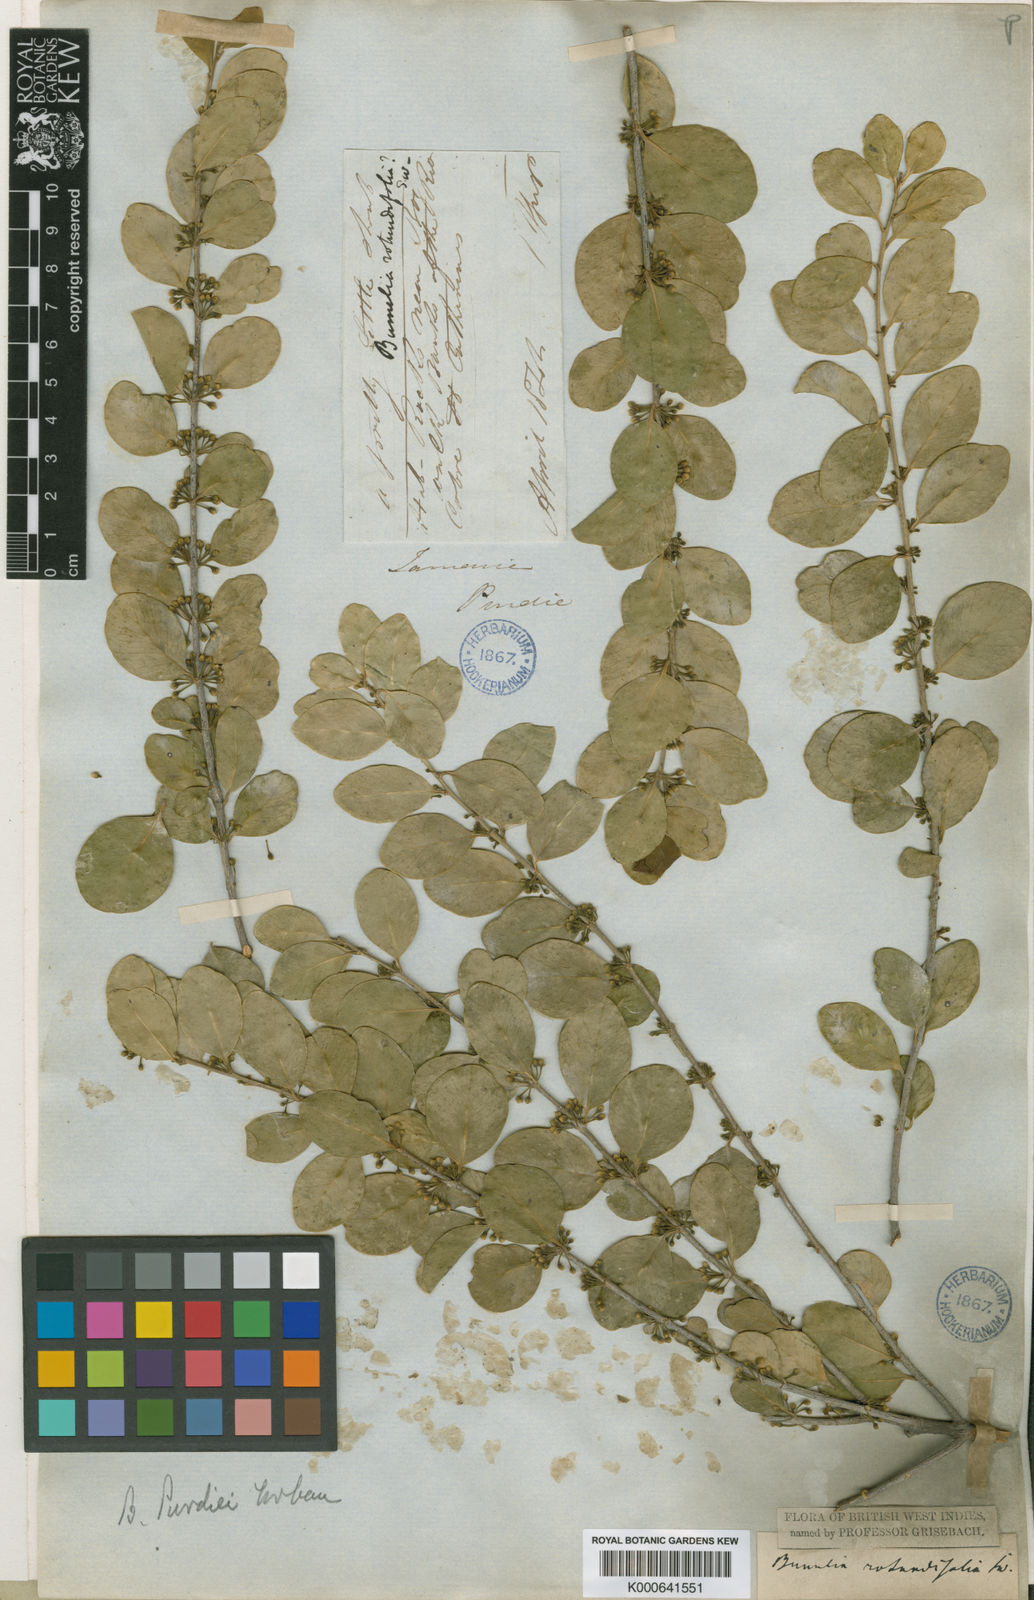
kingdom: Plantae
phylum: Tracheophyta
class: Magnoliopsida
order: Ericales
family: Sapotaceae
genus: Sideroxylon
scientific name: Sideroxylon rotundifolium
